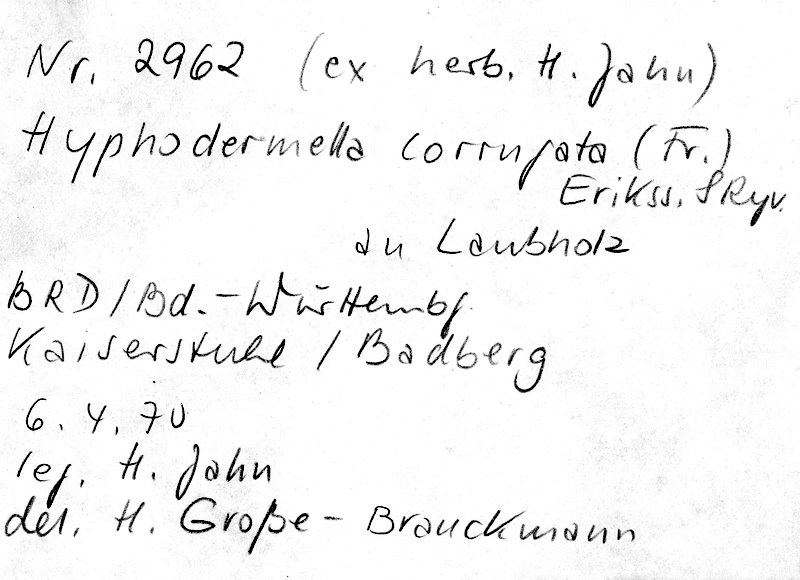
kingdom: Fungi
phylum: Basidiomycota
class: Agaricomycetes
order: Polyporales
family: Phanerochaetaceae
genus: Hyphodermella
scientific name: Hyphodermella corrugata
